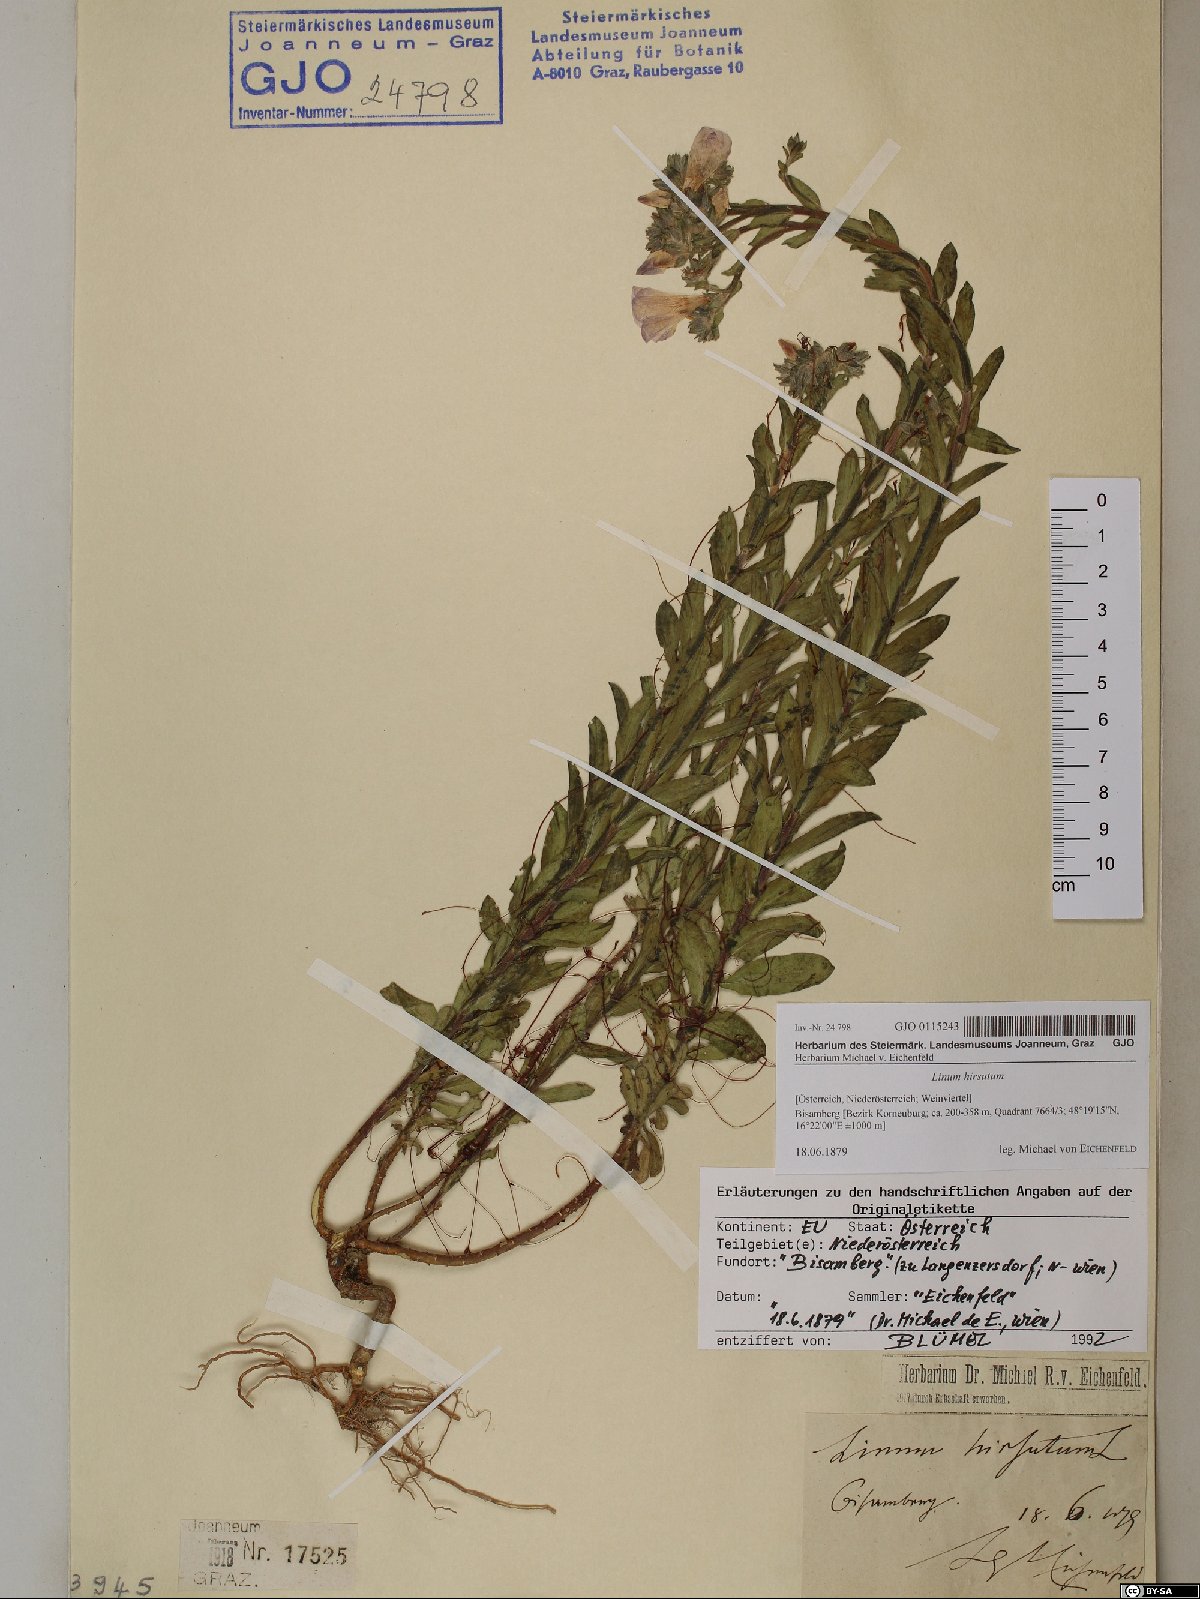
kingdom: Plantae
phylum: Tracheophyta
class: Magnoliopsida
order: Malpighiales
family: Linaceae
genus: Linum
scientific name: Linum hirsutum
